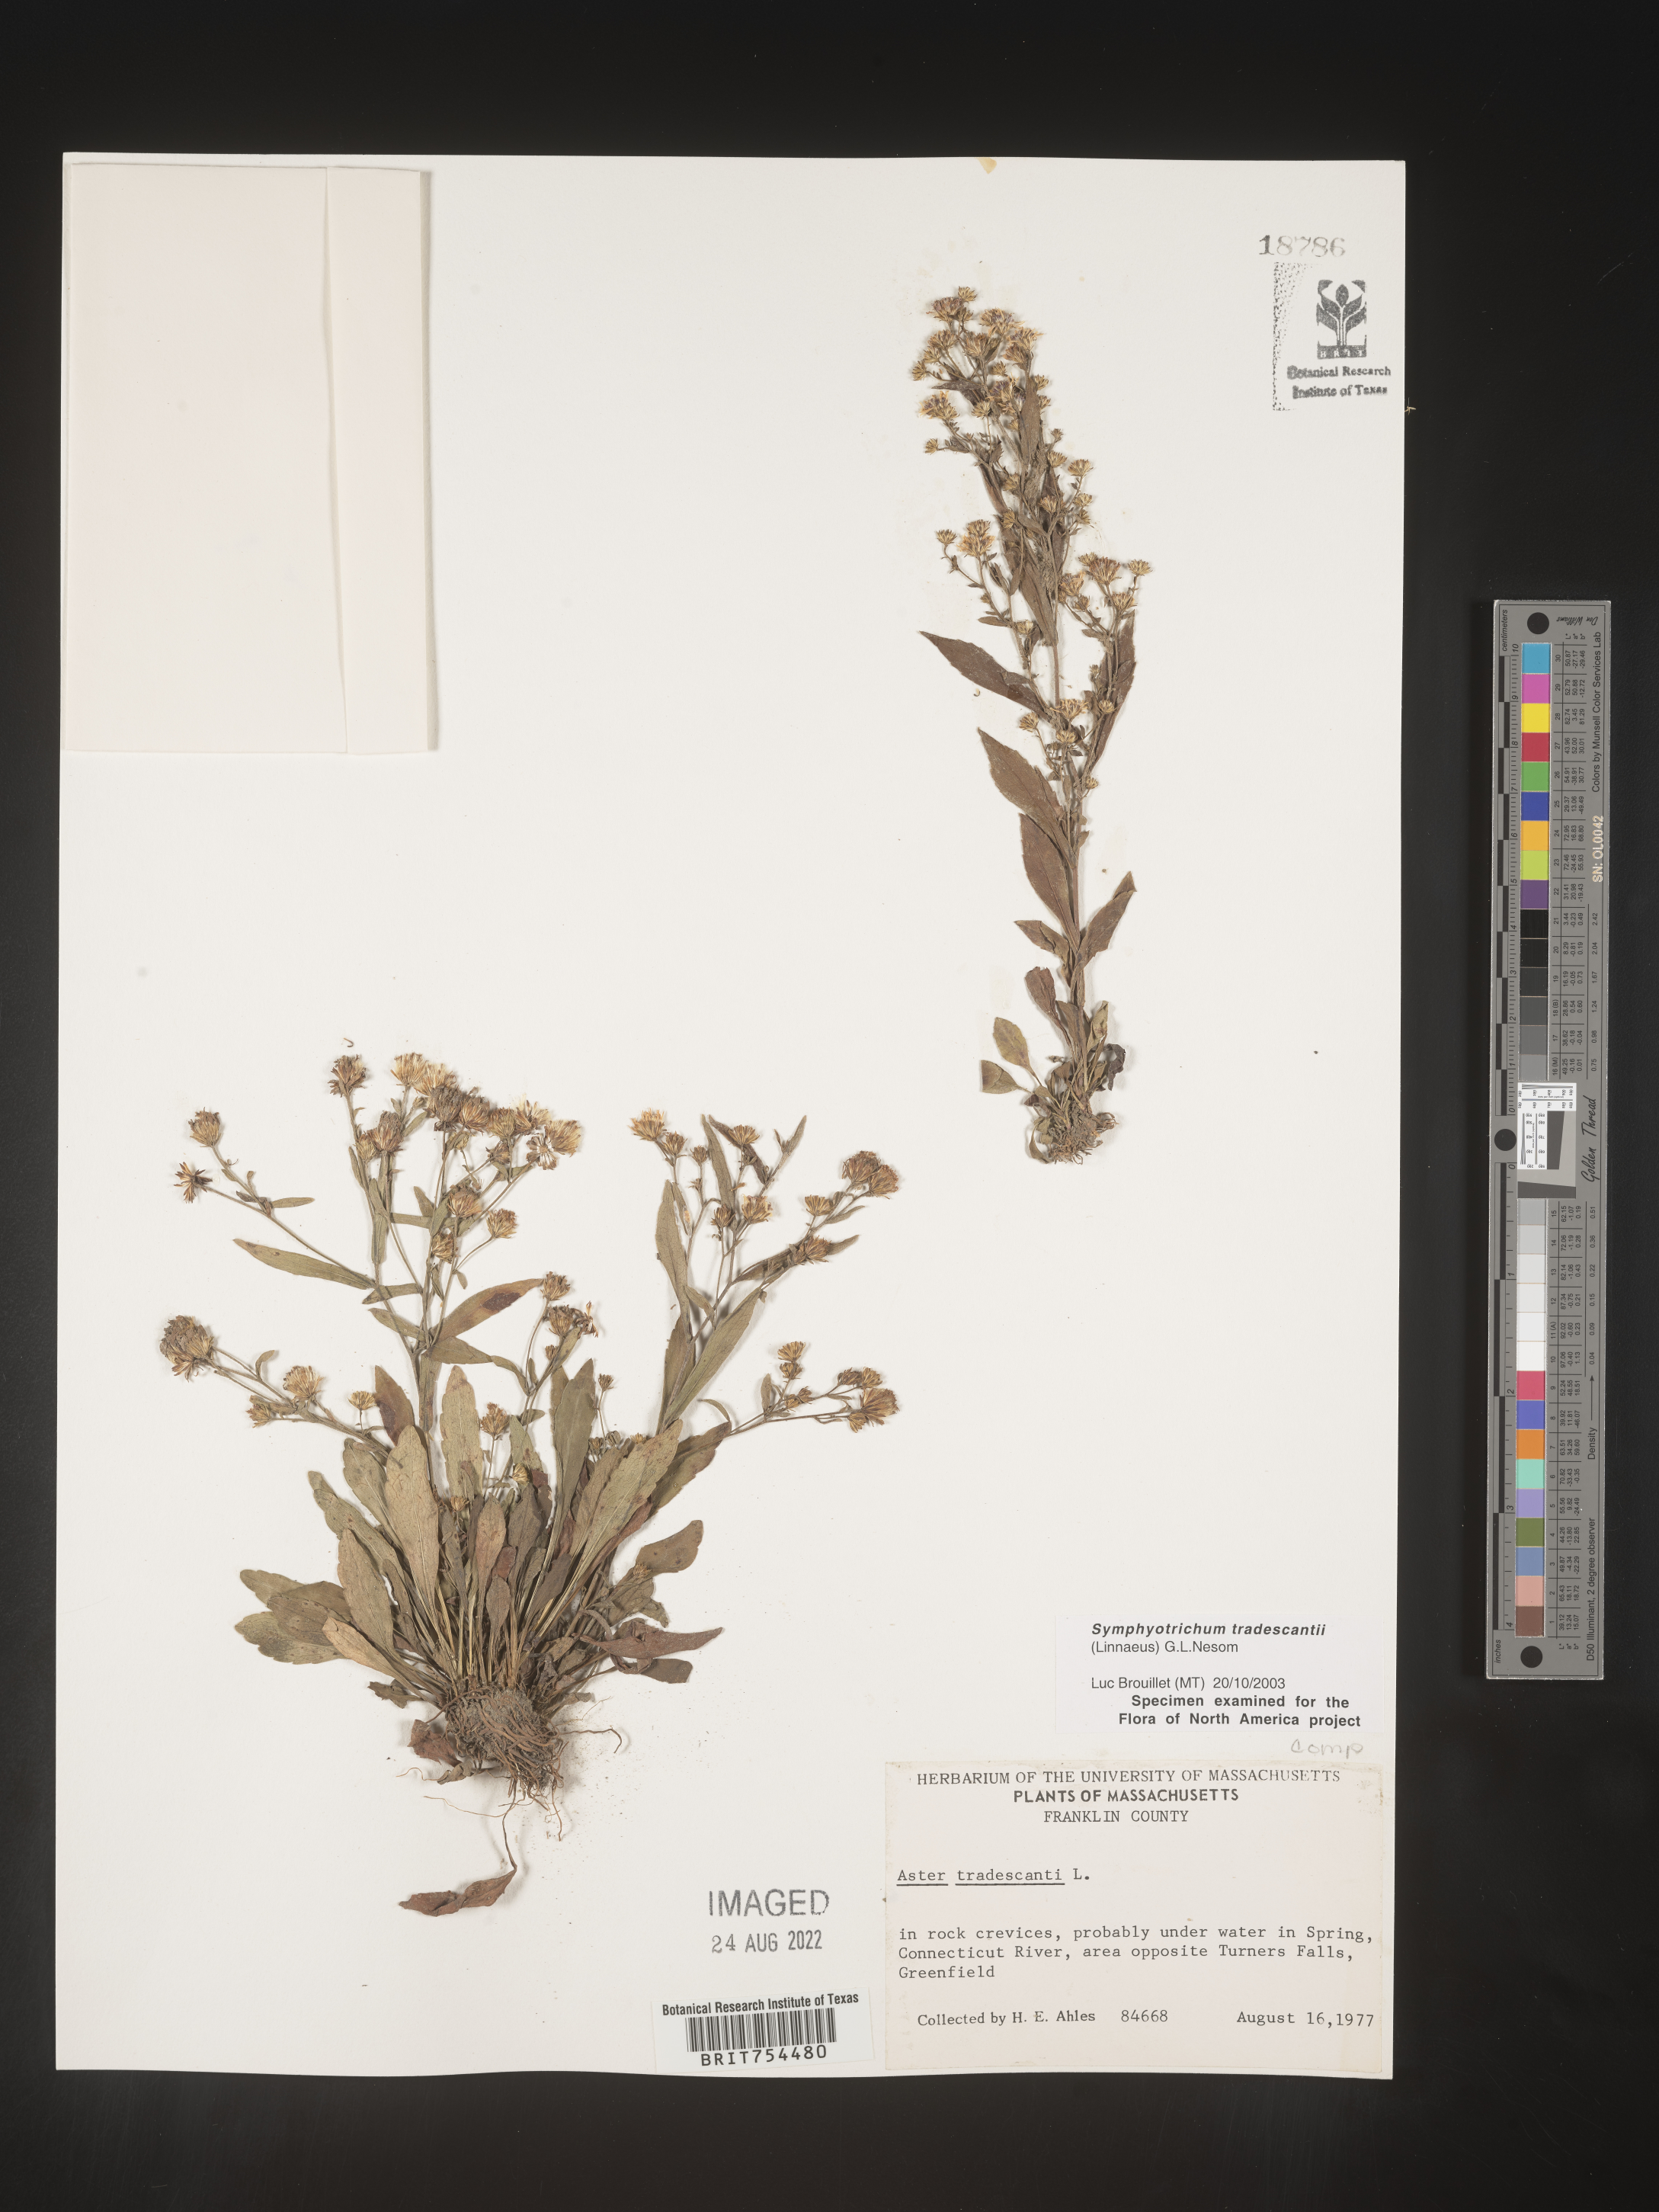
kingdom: Plantae
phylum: Tracheophyta
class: Magnoliopsida
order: Asterales
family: Asteraceae
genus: Symphyotrichum
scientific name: Symphyotrichum tradescantii
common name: Shore aster
